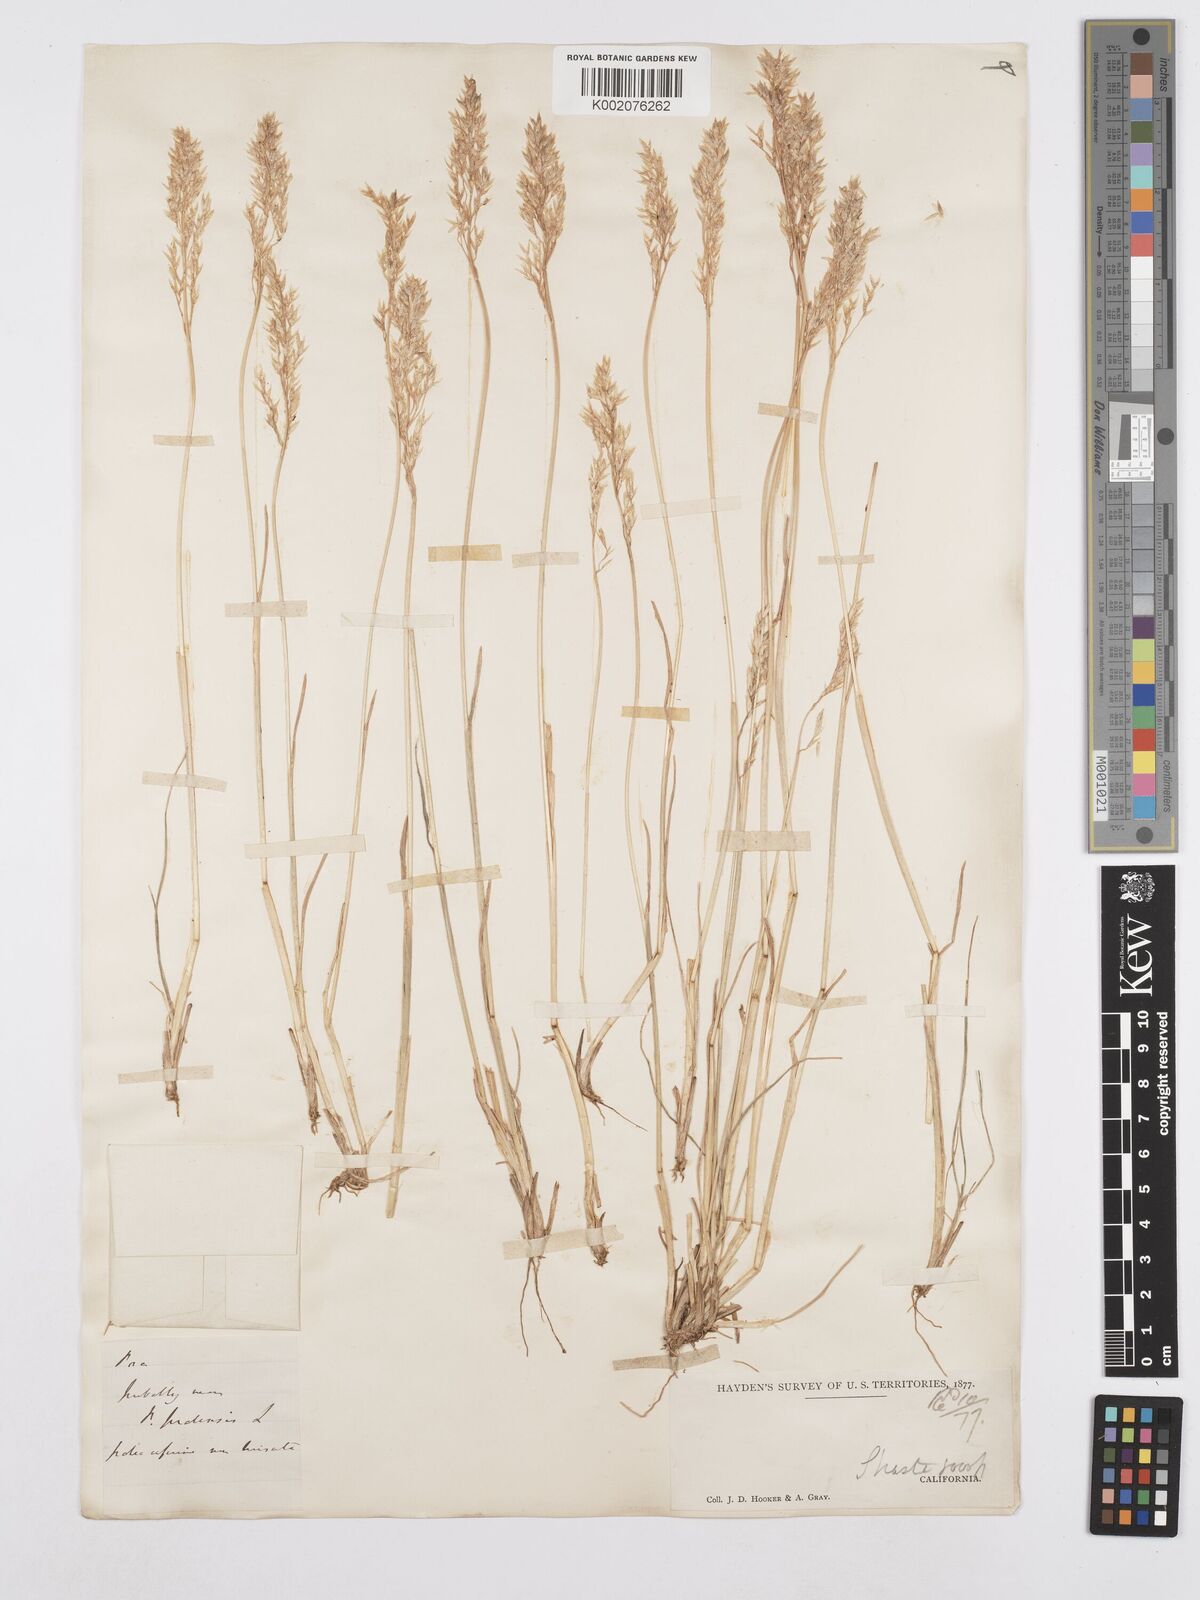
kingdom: Plantae
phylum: Tracheophyta
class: Liliopsida
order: Poales
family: Poaceae
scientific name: Poaceae
